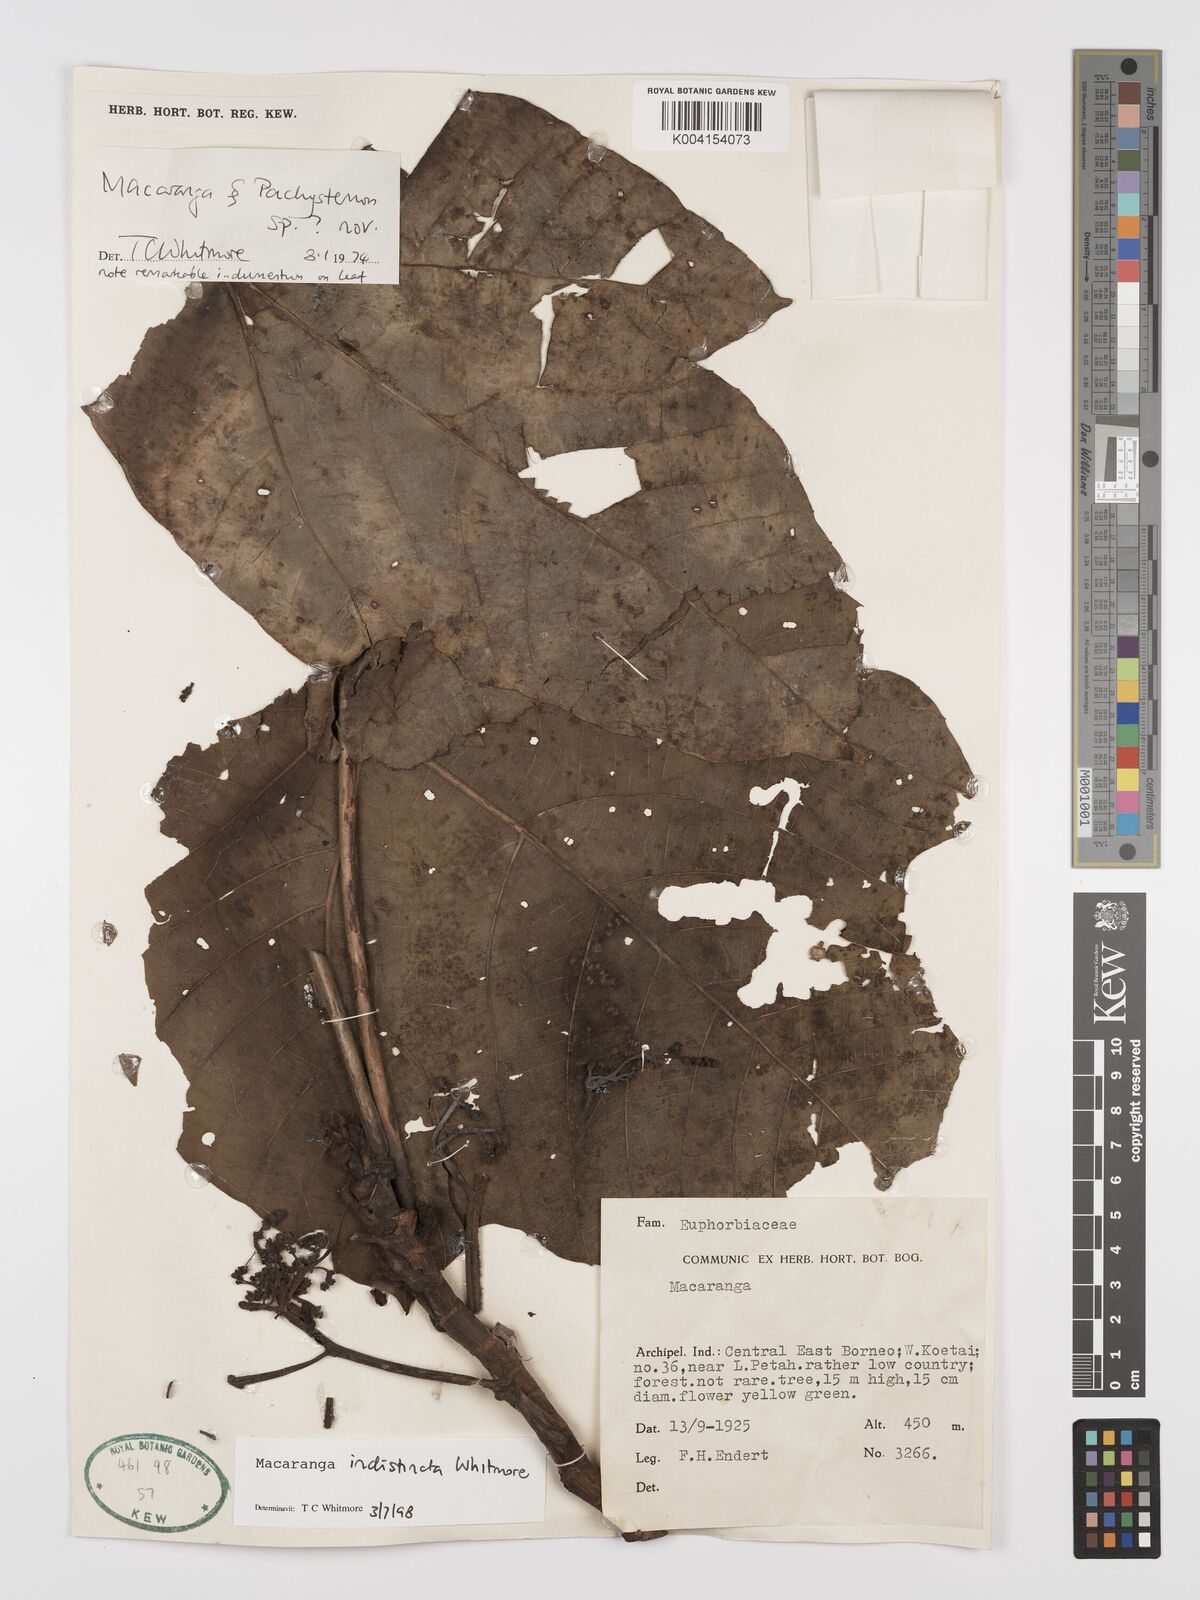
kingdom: Plantae
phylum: Tracheophyta
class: Magnoliopsida
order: Malpighiales
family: Euphorbiaceae
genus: Macaranga
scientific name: Macaranga indistincta
